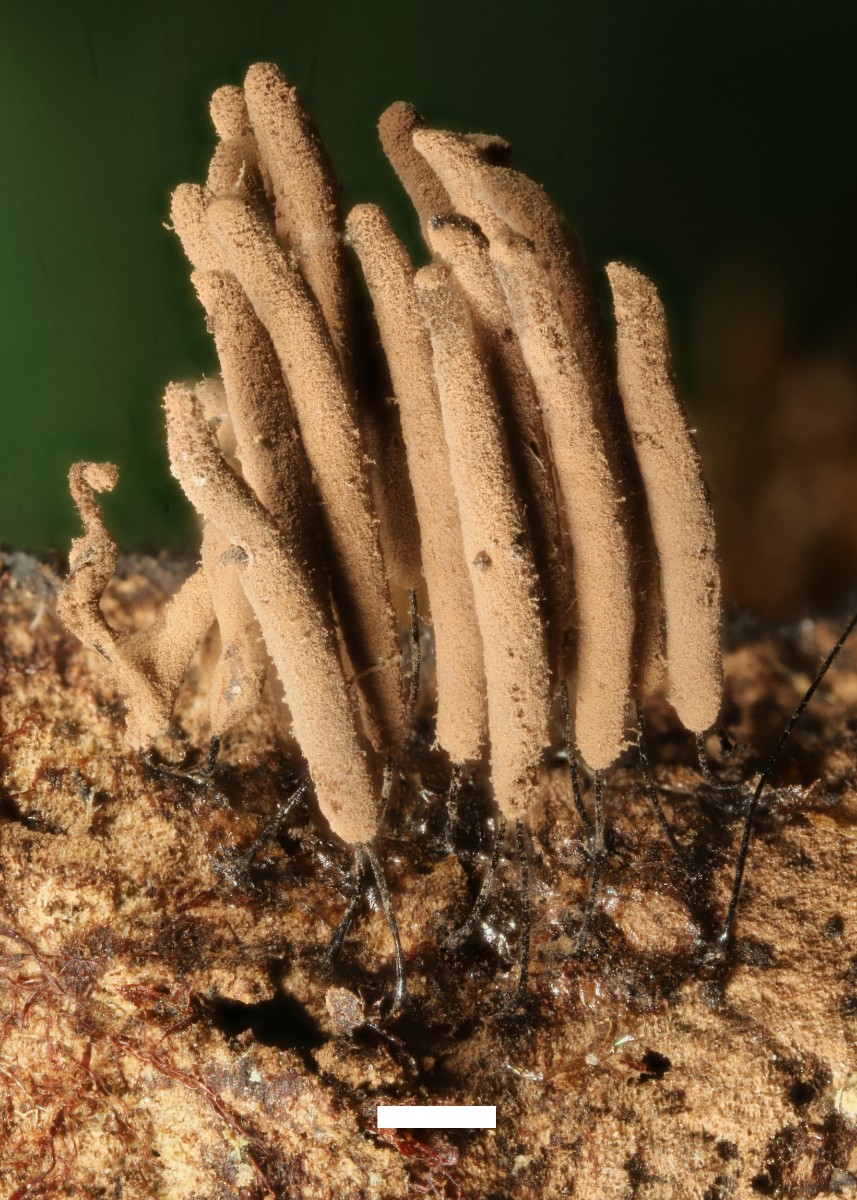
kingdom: Protozoa
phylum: Mycetozoa
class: Myxomycetes
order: Stemonitidales
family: Stemonitidaceae
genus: Stemonitis
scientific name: Stemonitis axifera
